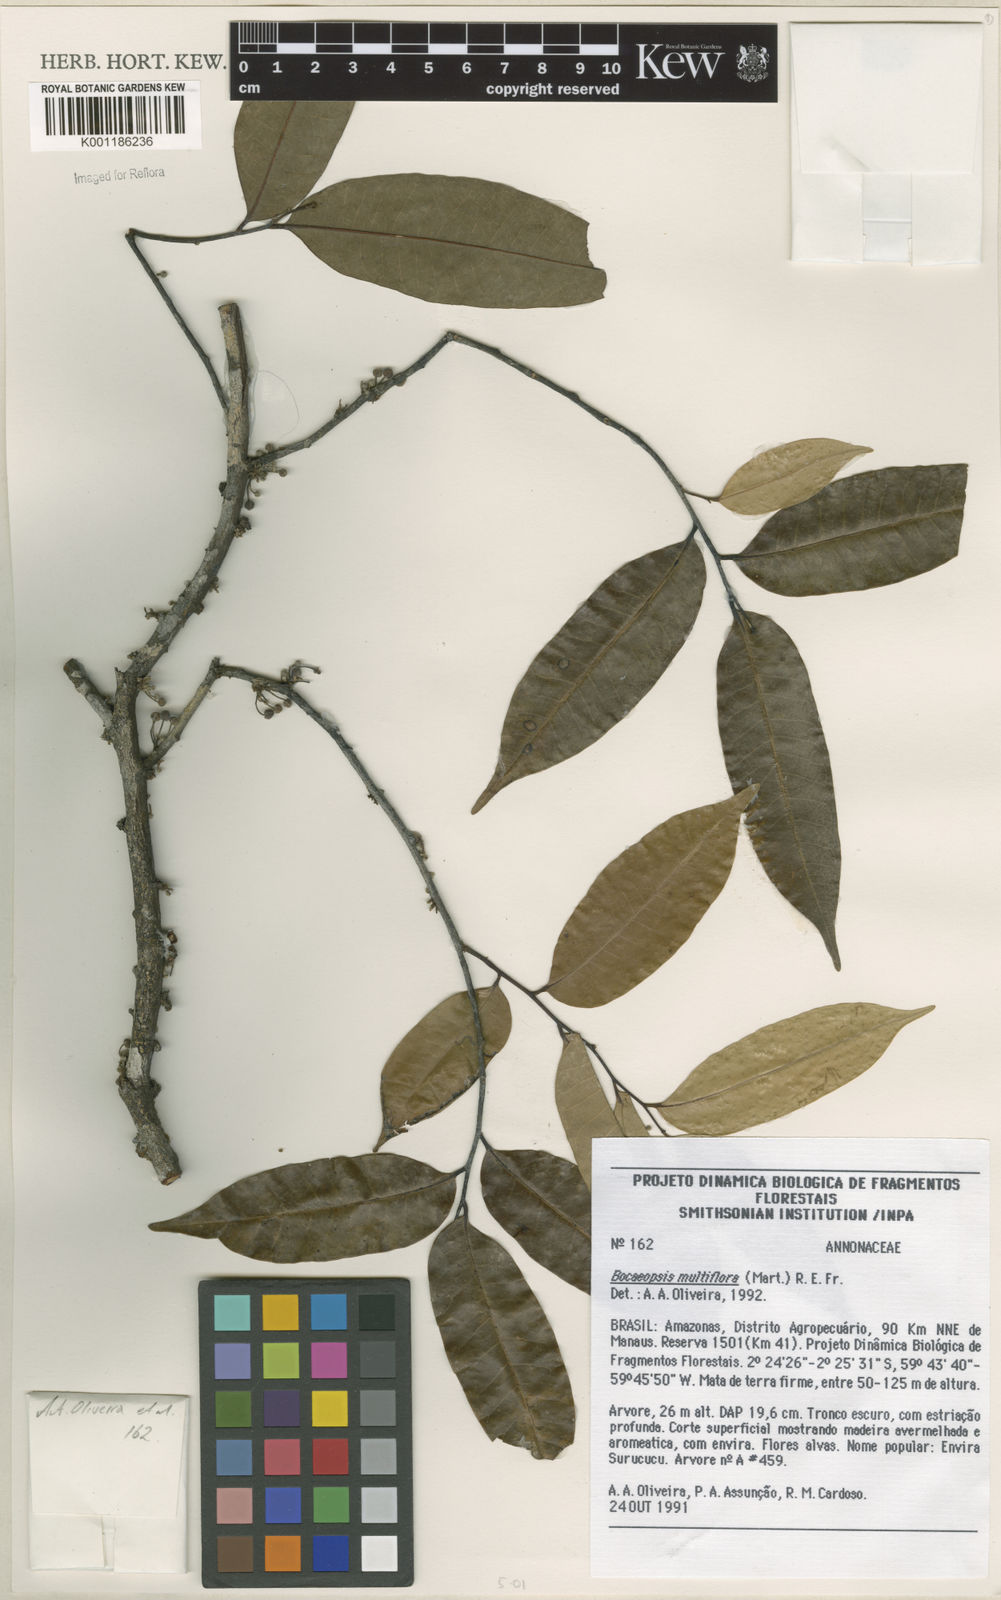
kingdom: Plantae
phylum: Tracheophyta
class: Magnoliopsida
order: Magnoliales
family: Annonaceae
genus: Bocageopsis
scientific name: Bocageopsis multiflora
